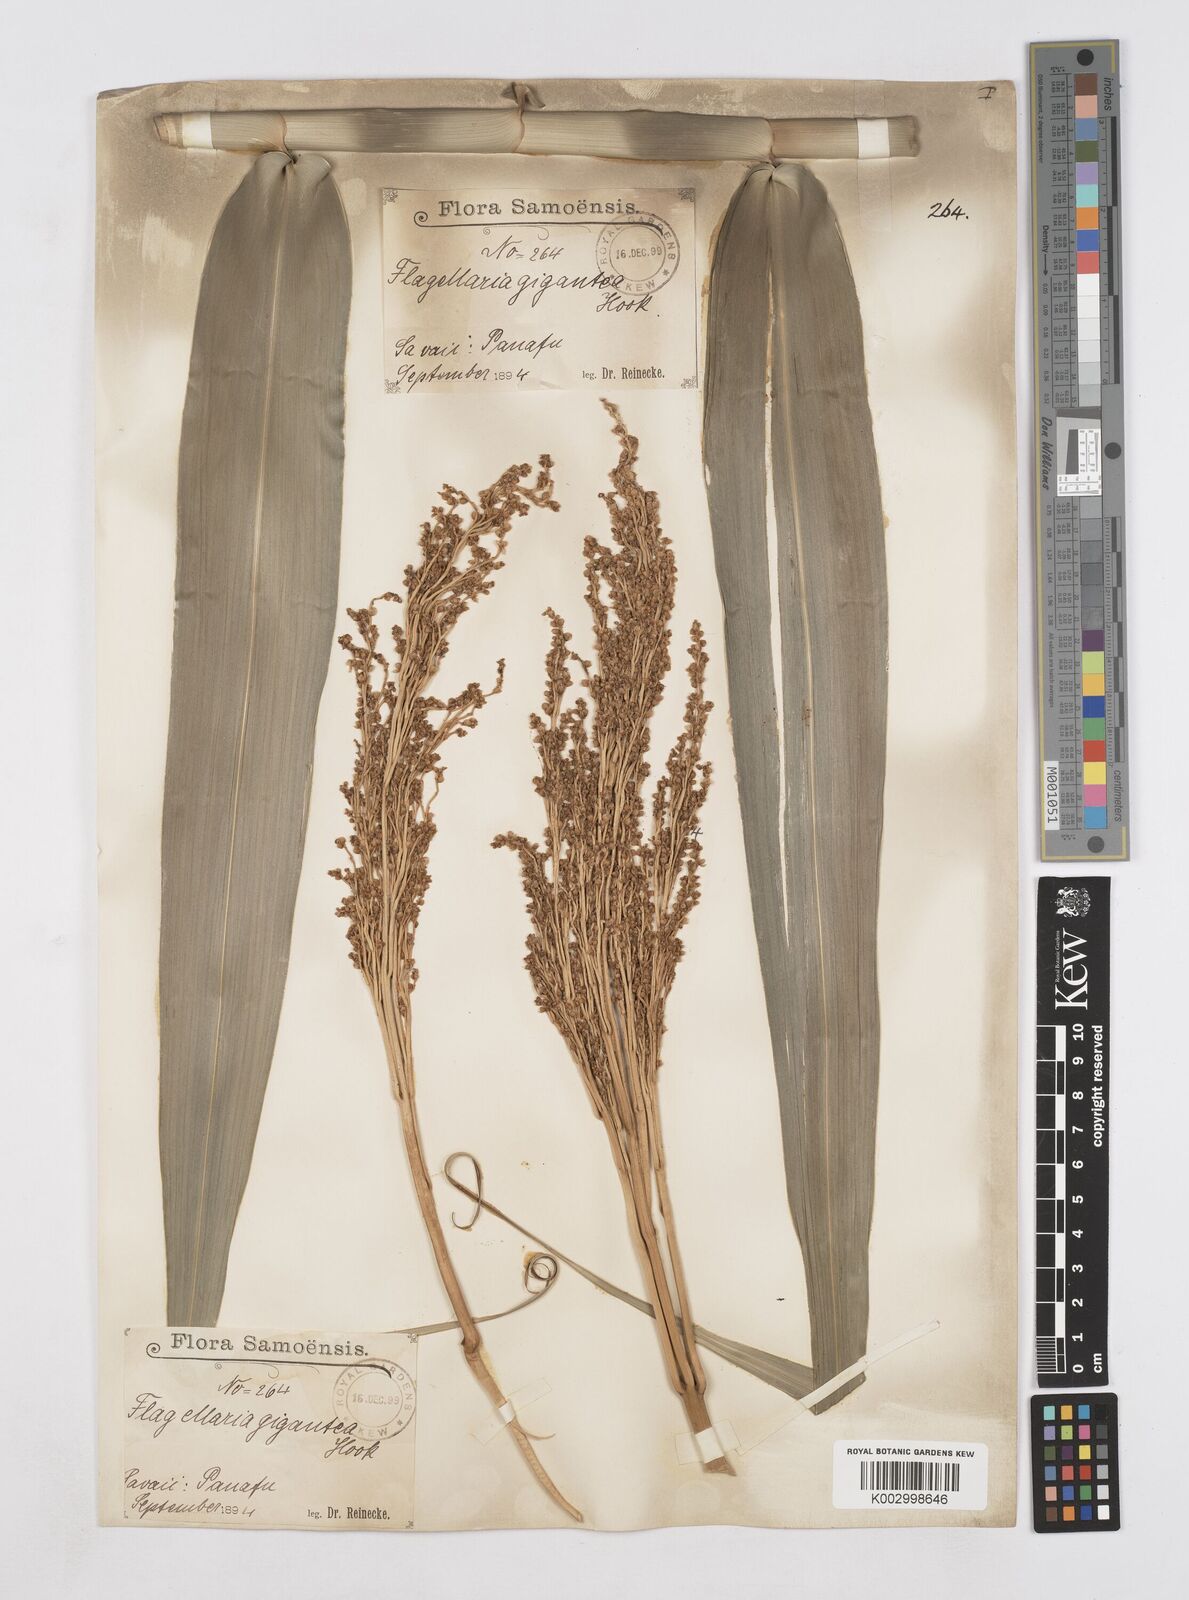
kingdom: Plantae
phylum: Tracheophyta
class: Liliopsida
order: Poales
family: Flagellariaceae
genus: Flagellaria
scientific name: Flagellaria gigantea
